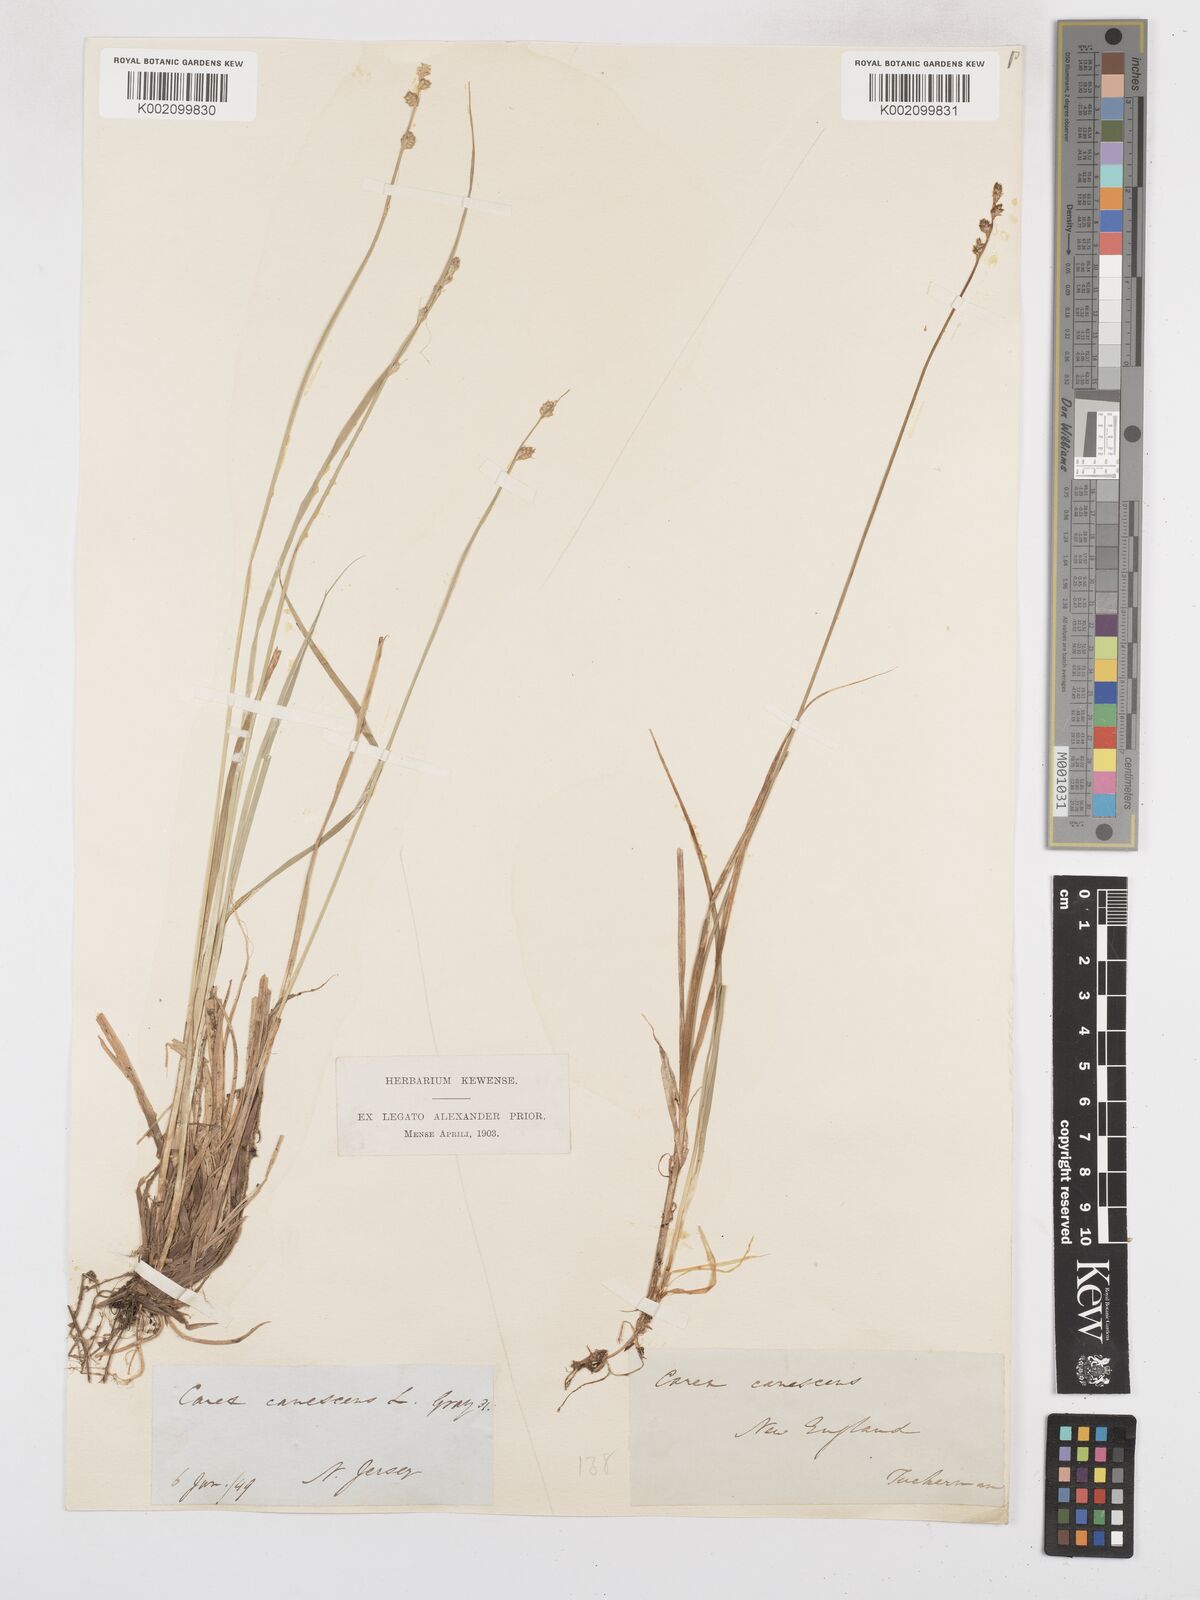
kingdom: Plantae
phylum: Tracheophyta
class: Liliopsida
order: Poales
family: Cyperaceae
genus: Carex
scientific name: Carex curta
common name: White sedge
